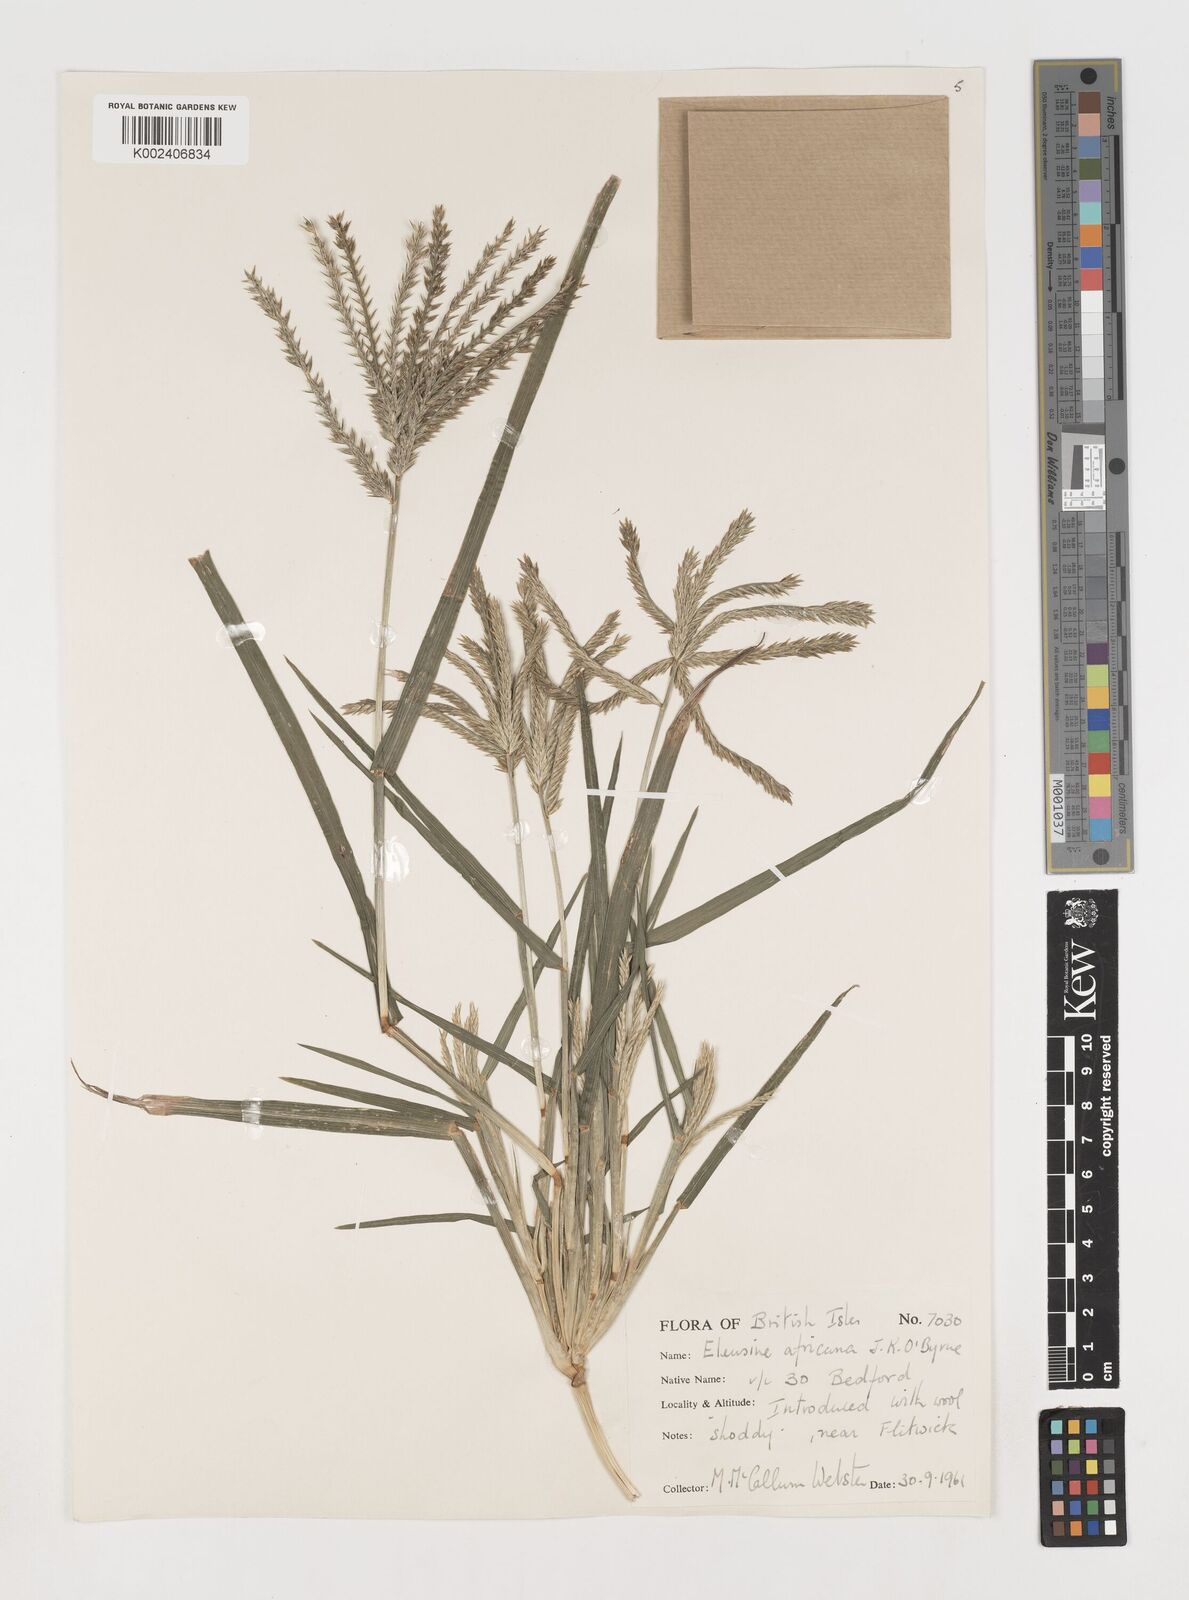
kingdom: Plantae
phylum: Tracheophyta
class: Liliopsida
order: Poales
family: Poaceae
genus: Eleusine
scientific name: Eleusine africana
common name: Wild african finger millet
